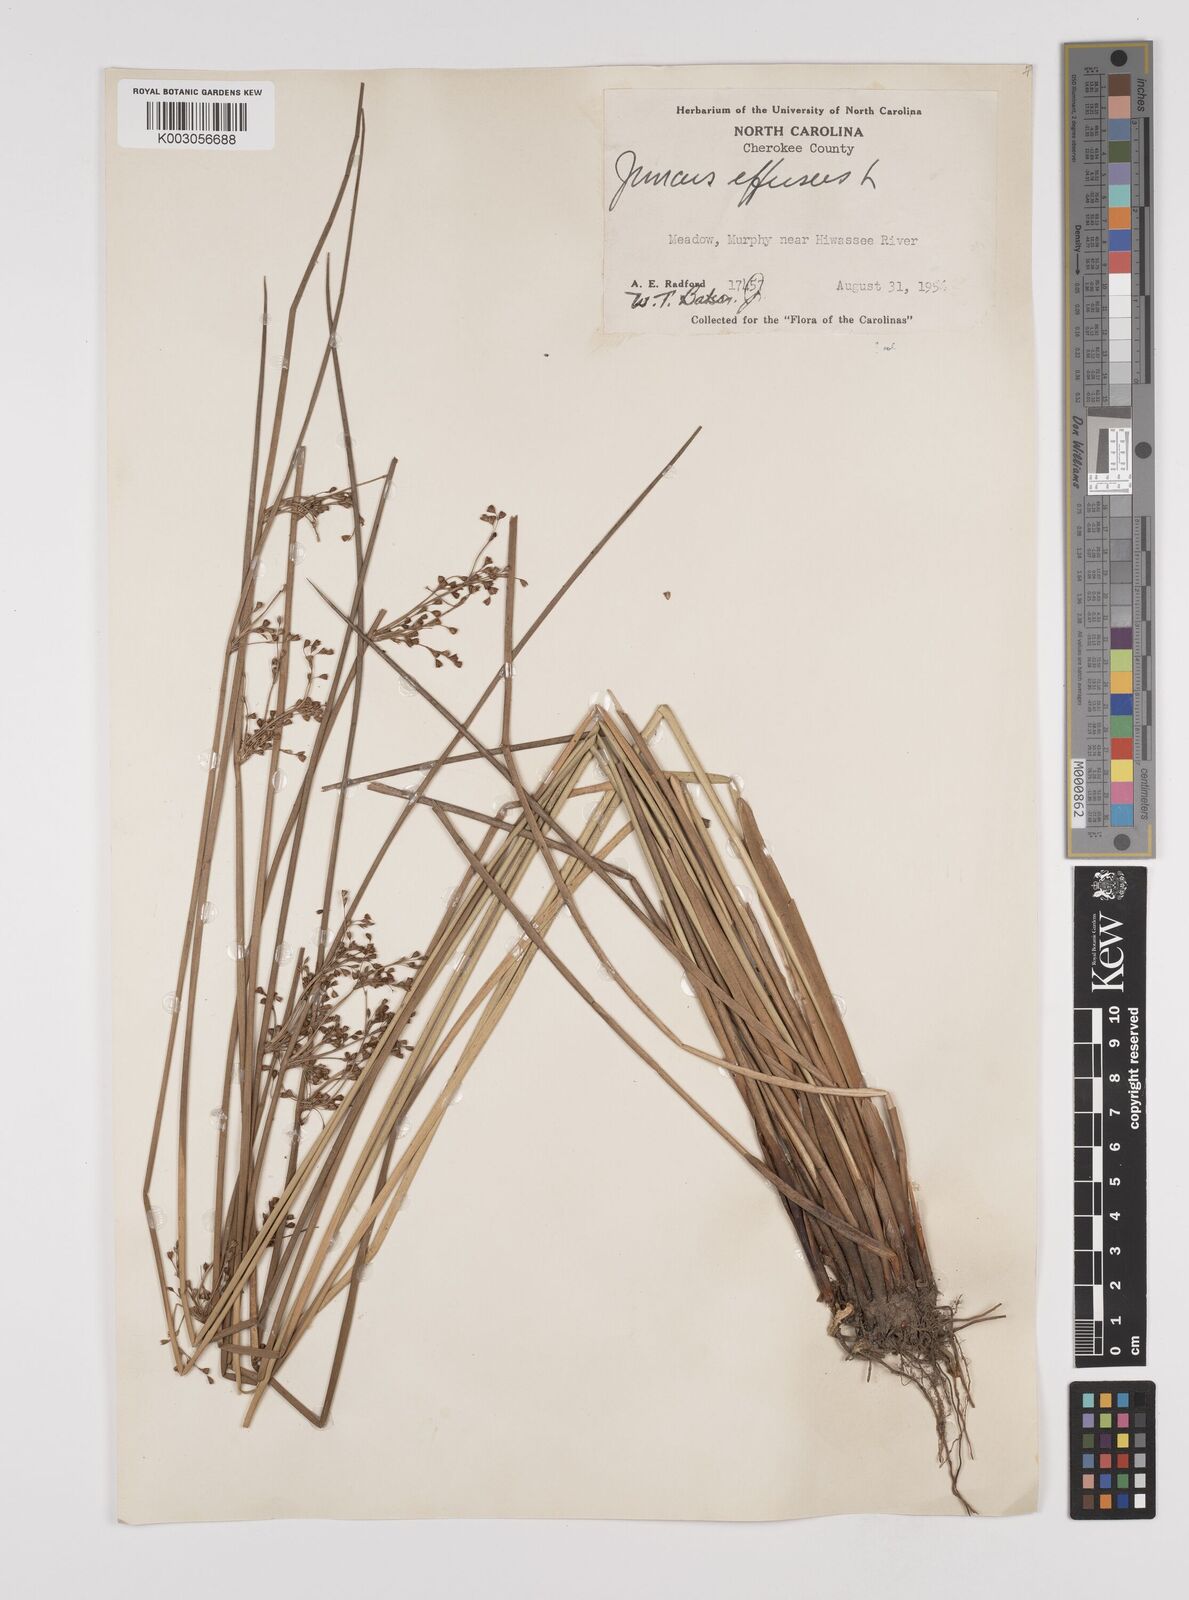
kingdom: Plantae
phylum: Tracheophyta
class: Liliopsida
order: Poales
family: Juncaceae
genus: Juncus
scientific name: Juncus effusus
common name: Soft rush
